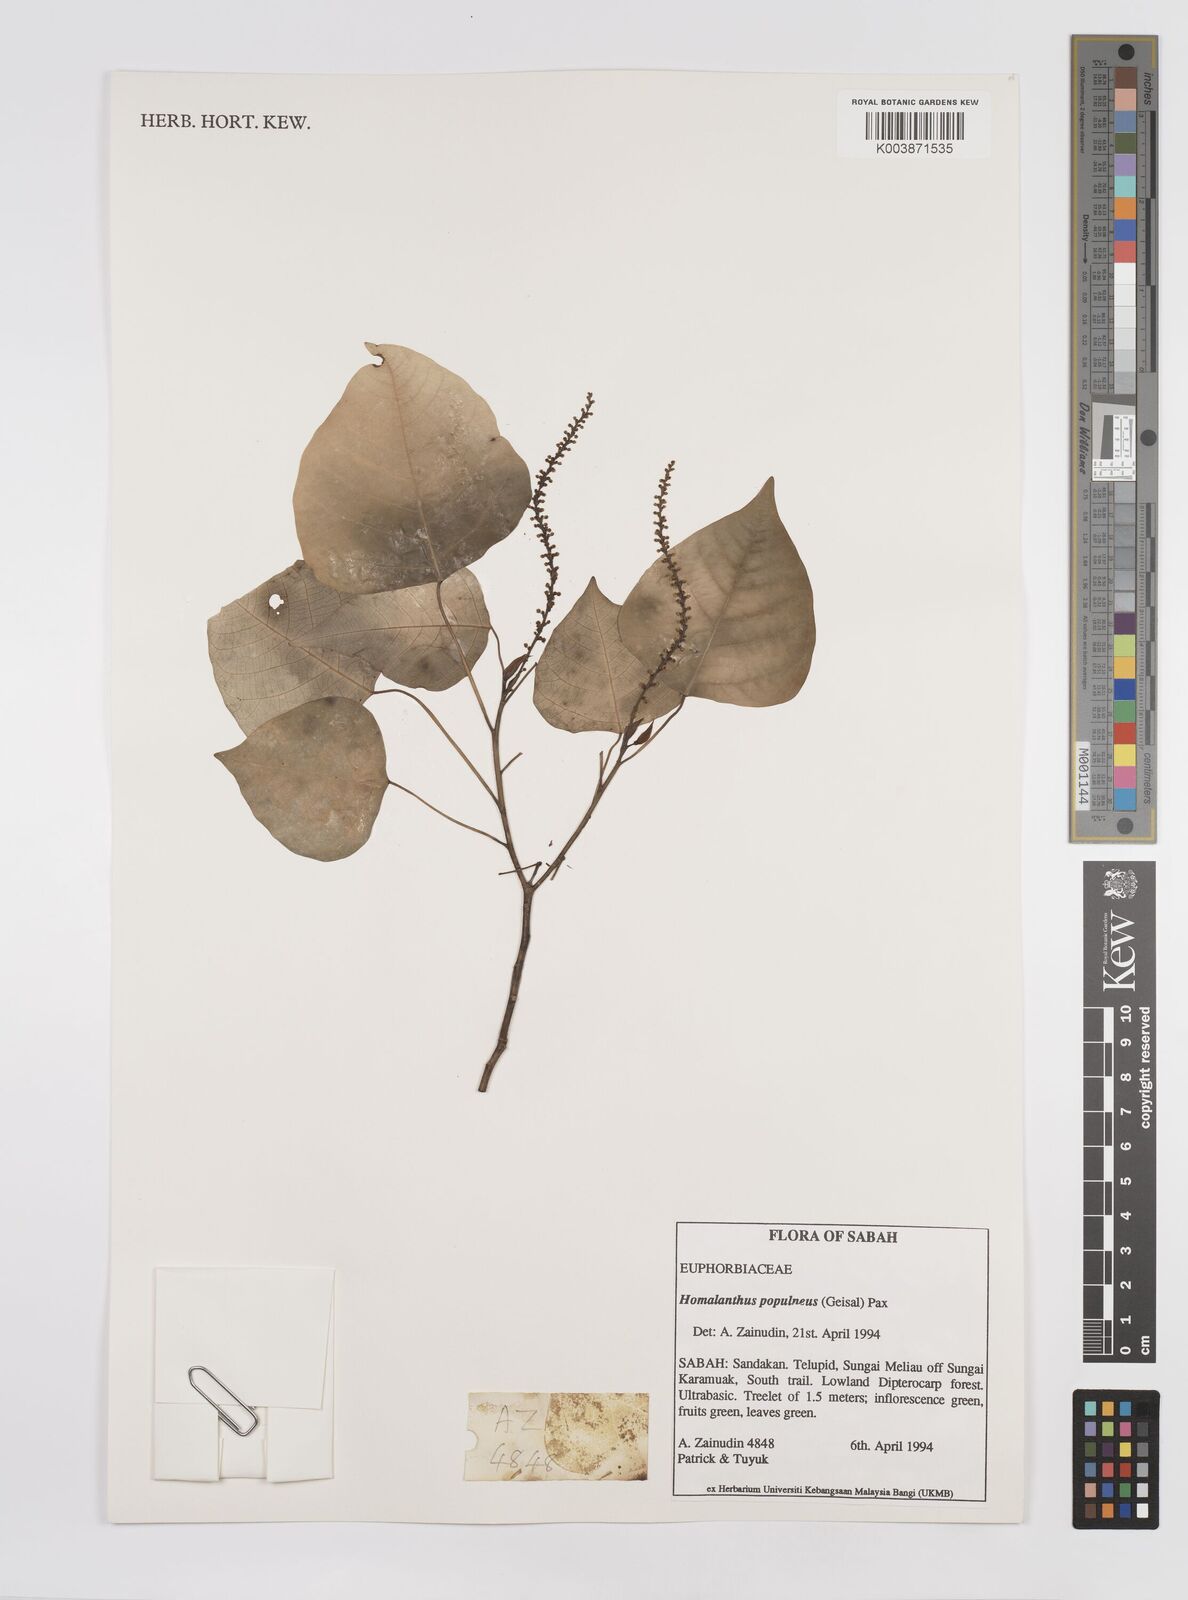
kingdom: Plantae
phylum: Tracheophyta
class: Magnoliopsida
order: Malpighiales
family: Euphorbiaceae
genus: Homalanthus
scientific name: Homalanthus populneus
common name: Spurge
